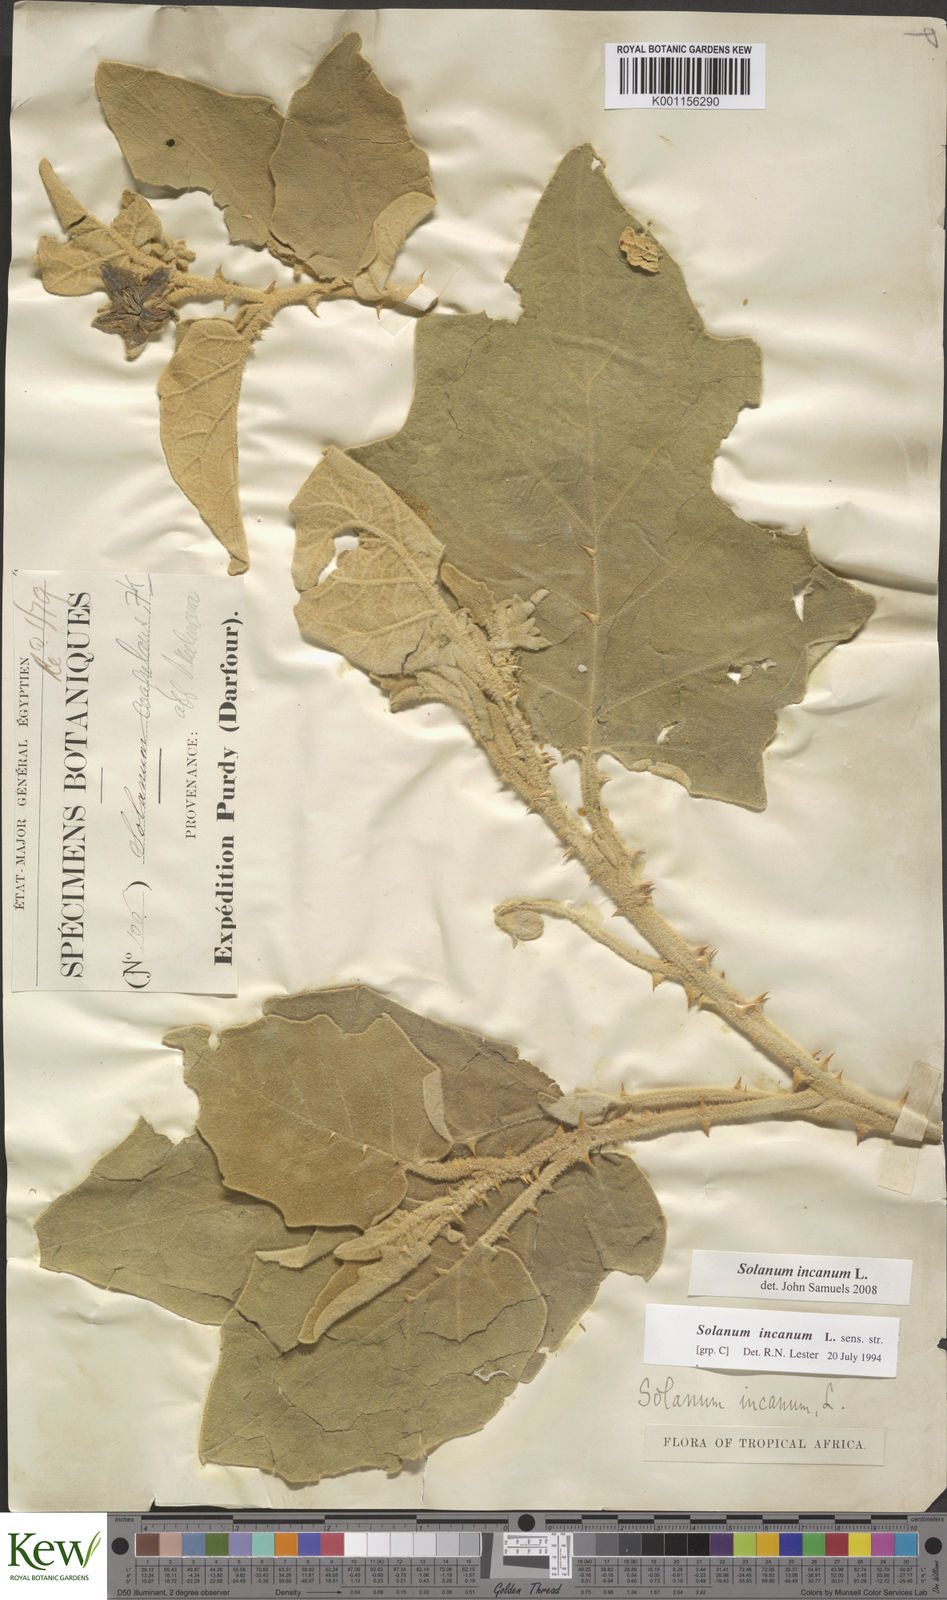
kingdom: Plantae
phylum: Tracheophyta
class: Magnoliopsida
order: Solanales
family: Solanaceae
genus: Solanum
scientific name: Solanum incanum
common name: Bitter apple
